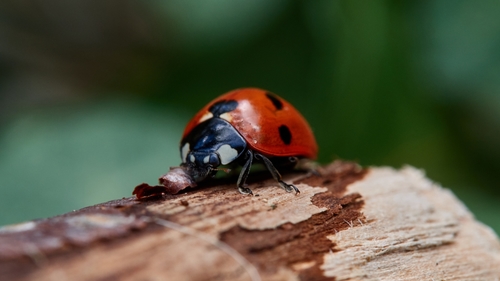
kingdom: Animalia
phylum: Arthropoda
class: Insecta
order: Coleoptera
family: Coccinellidae
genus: Coccinella
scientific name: Coccinella septempunctata
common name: Sevenspotted lady beetle
